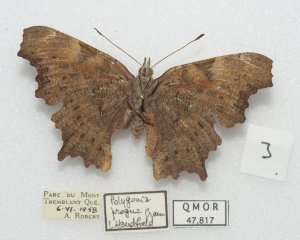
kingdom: Animalia
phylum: Arthropoda
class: Insecta
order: Lepidoptera
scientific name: Lepidoptera
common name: Butterflies
